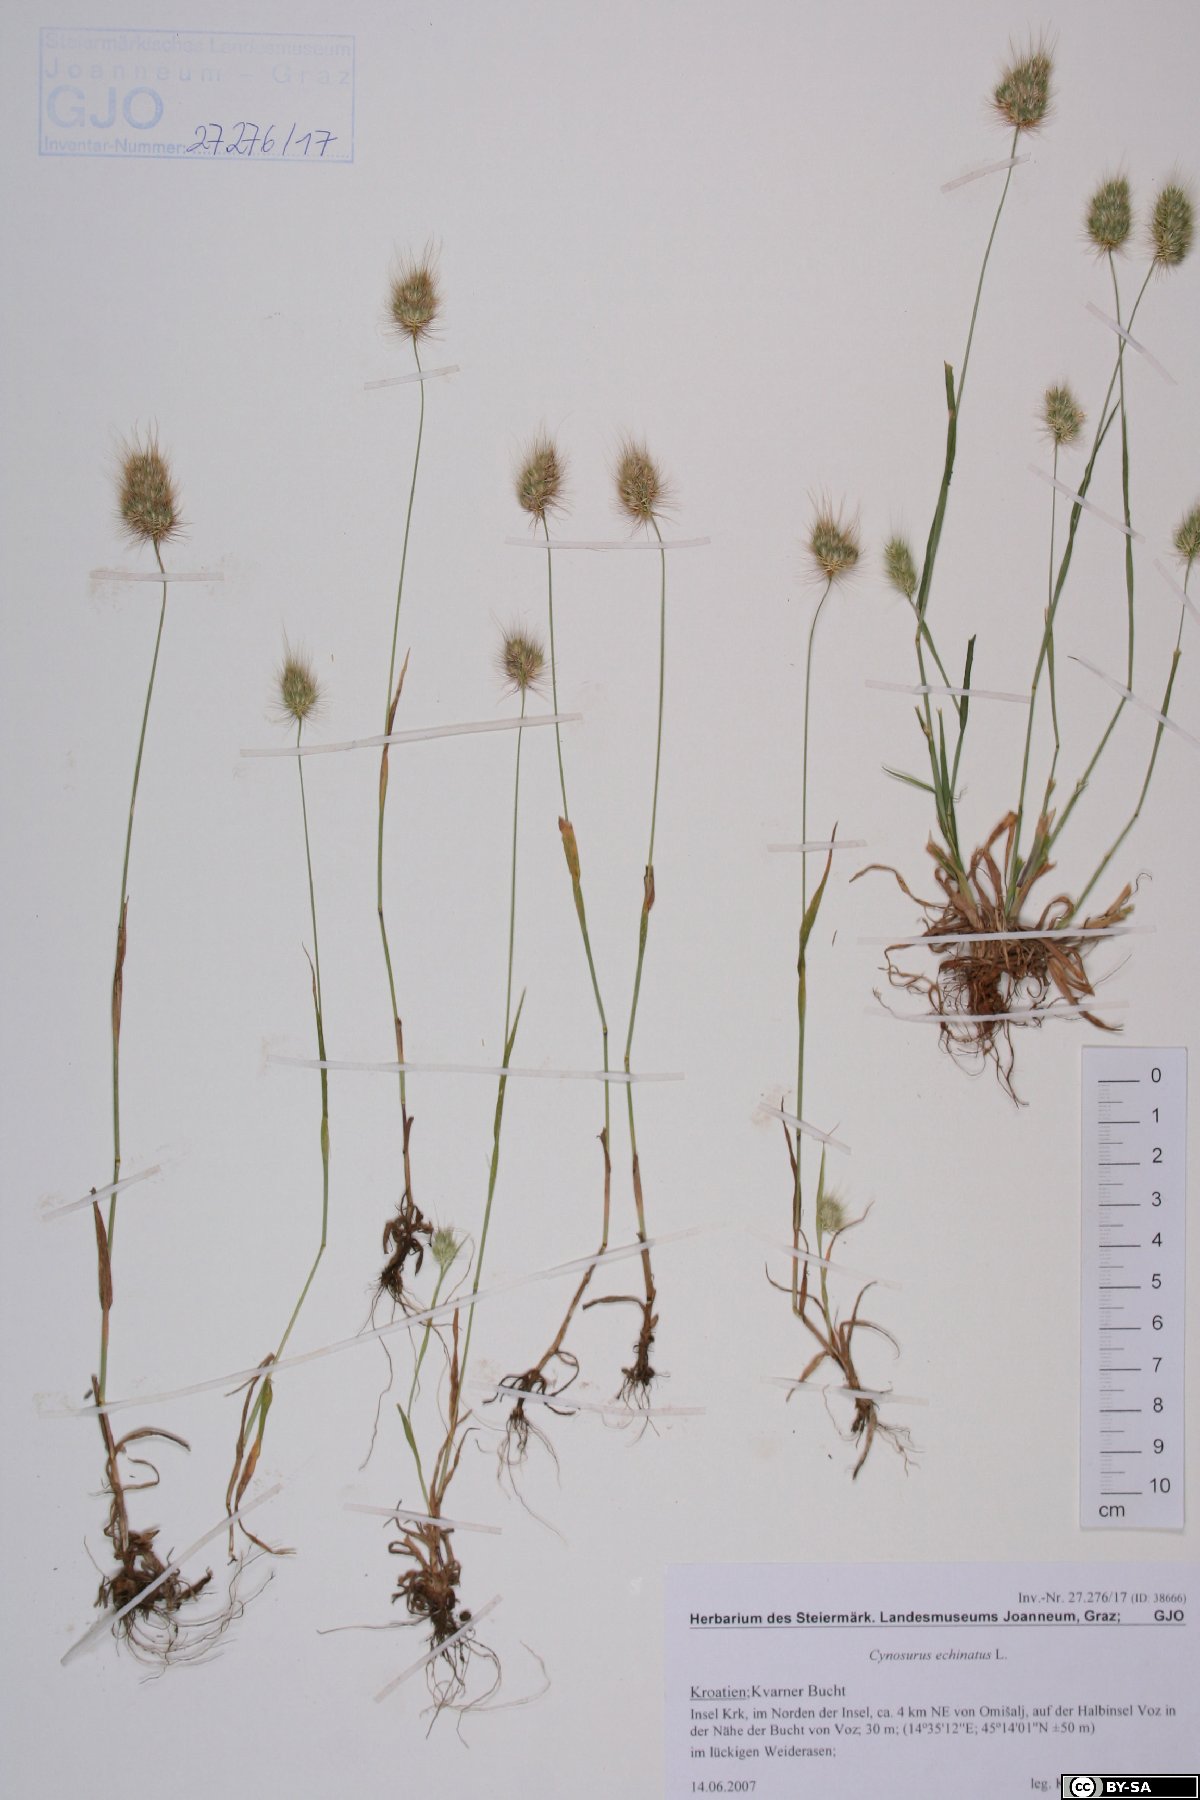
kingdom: Plantae
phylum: Tracheophyta
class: Liliopsida
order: Poales
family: Poaceae
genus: Cynosurus
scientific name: Cynosurus echinatus
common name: Rough dog's-tail
